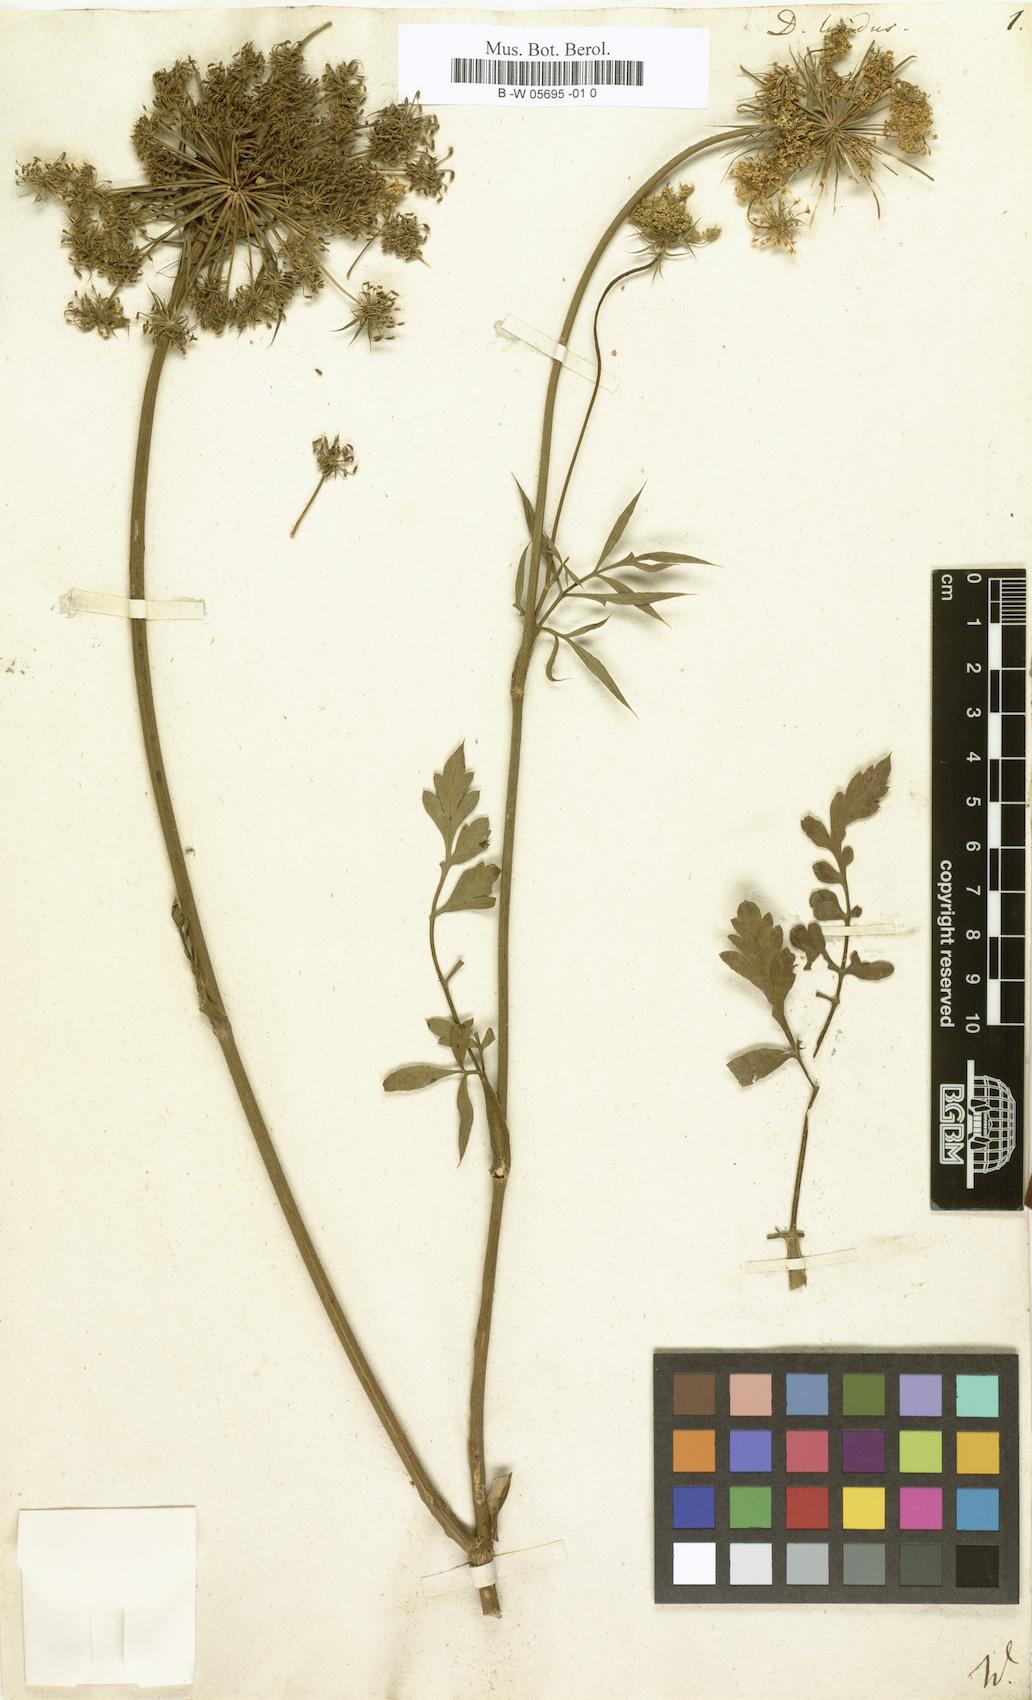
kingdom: Plantae
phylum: Tracheophyta
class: Magnoliopsida
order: Apiales
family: Apiaceae
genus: Daucus
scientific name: Daucus carota
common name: Wild carrot
